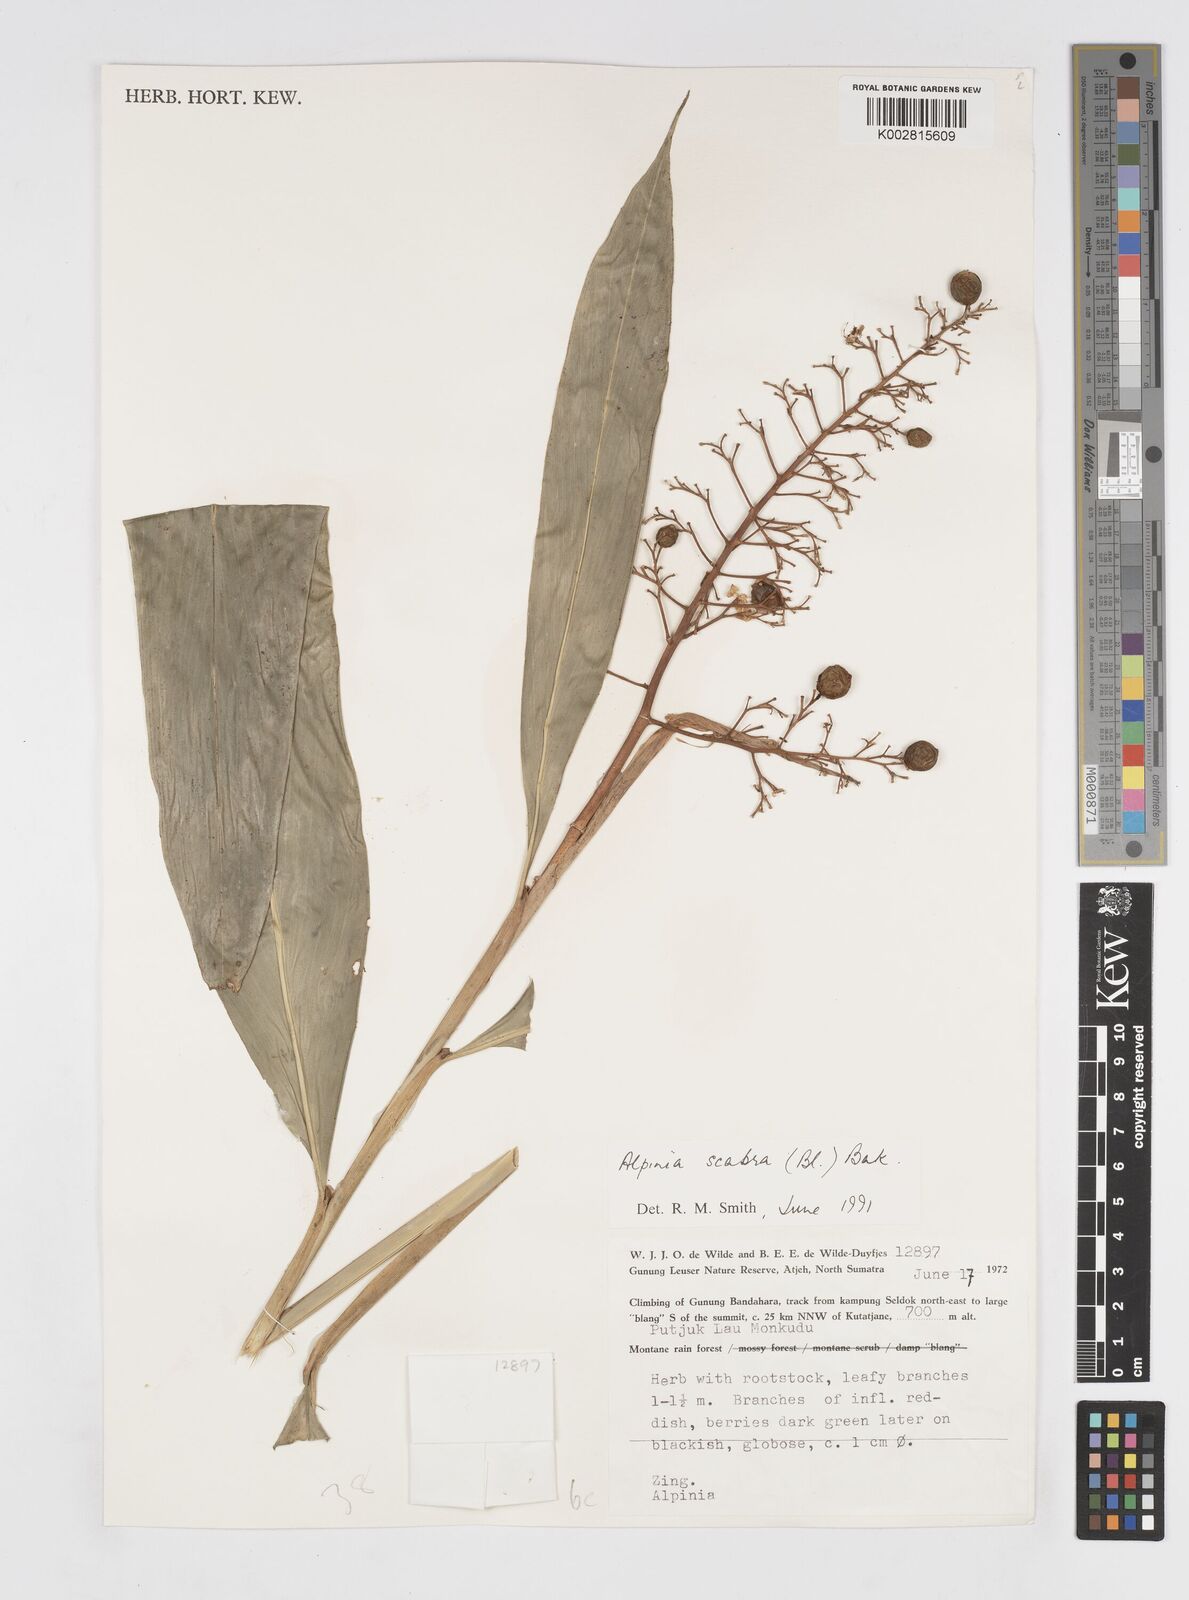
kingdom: Plantae
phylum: Tracheophyta
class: Liliopsida
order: Zingiberales
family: Zingiberaceae
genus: Alpinia
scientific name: Alpinia scabra
